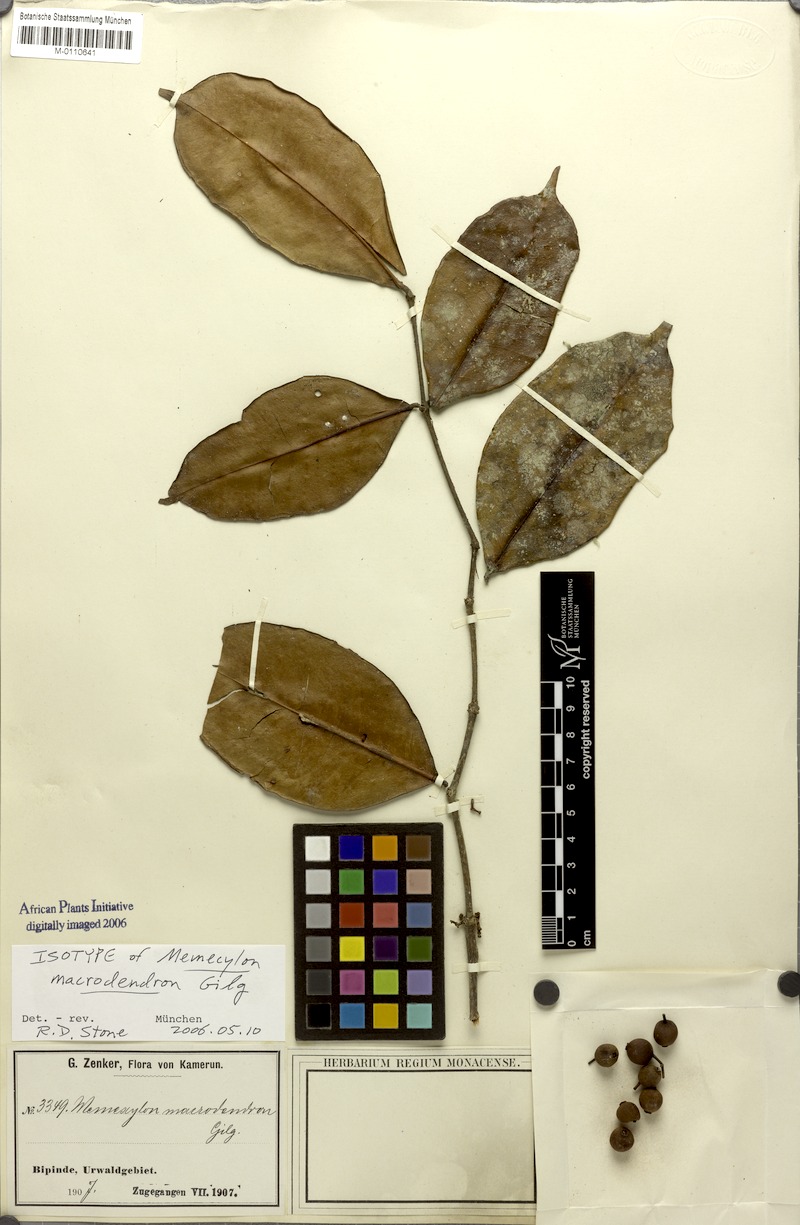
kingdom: Plantae
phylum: Tracheophyta
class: Magnoliopsida
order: Myrtales
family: Melastomataceae
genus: Memecylon
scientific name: Memecylon macrodendron
